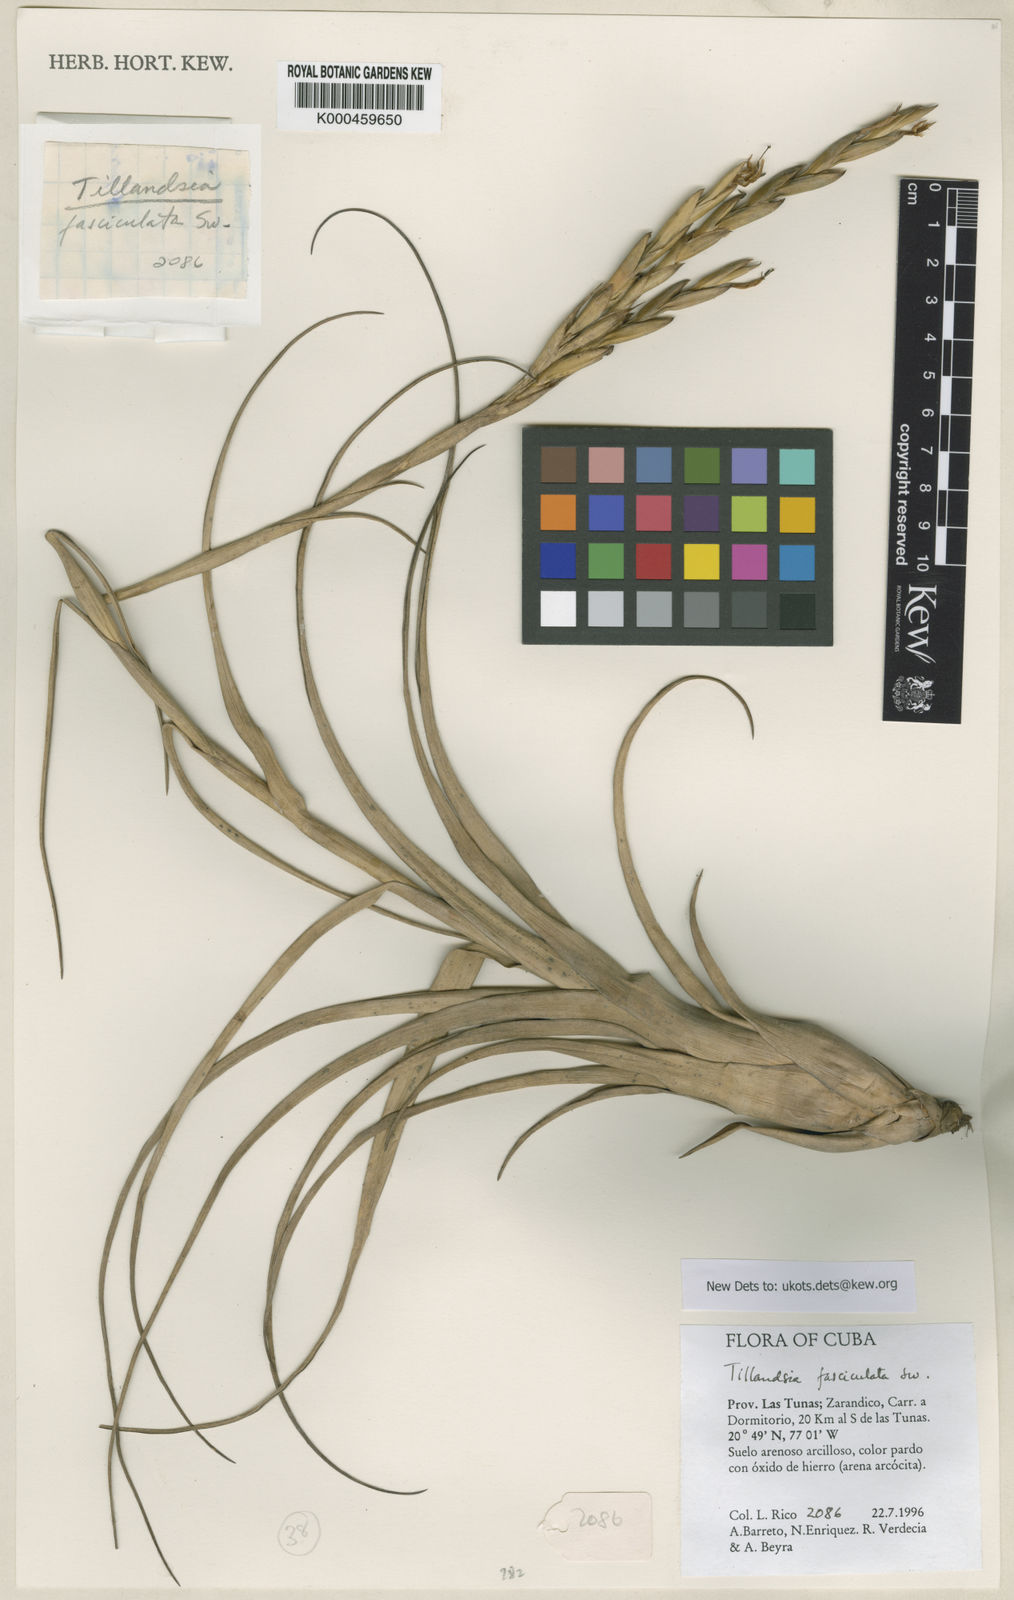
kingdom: Plantae
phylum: Tracheophyta
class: Liliopsida
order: Poales
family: Bromeliaceae
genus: Tillandsia
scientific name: Tillandsia
